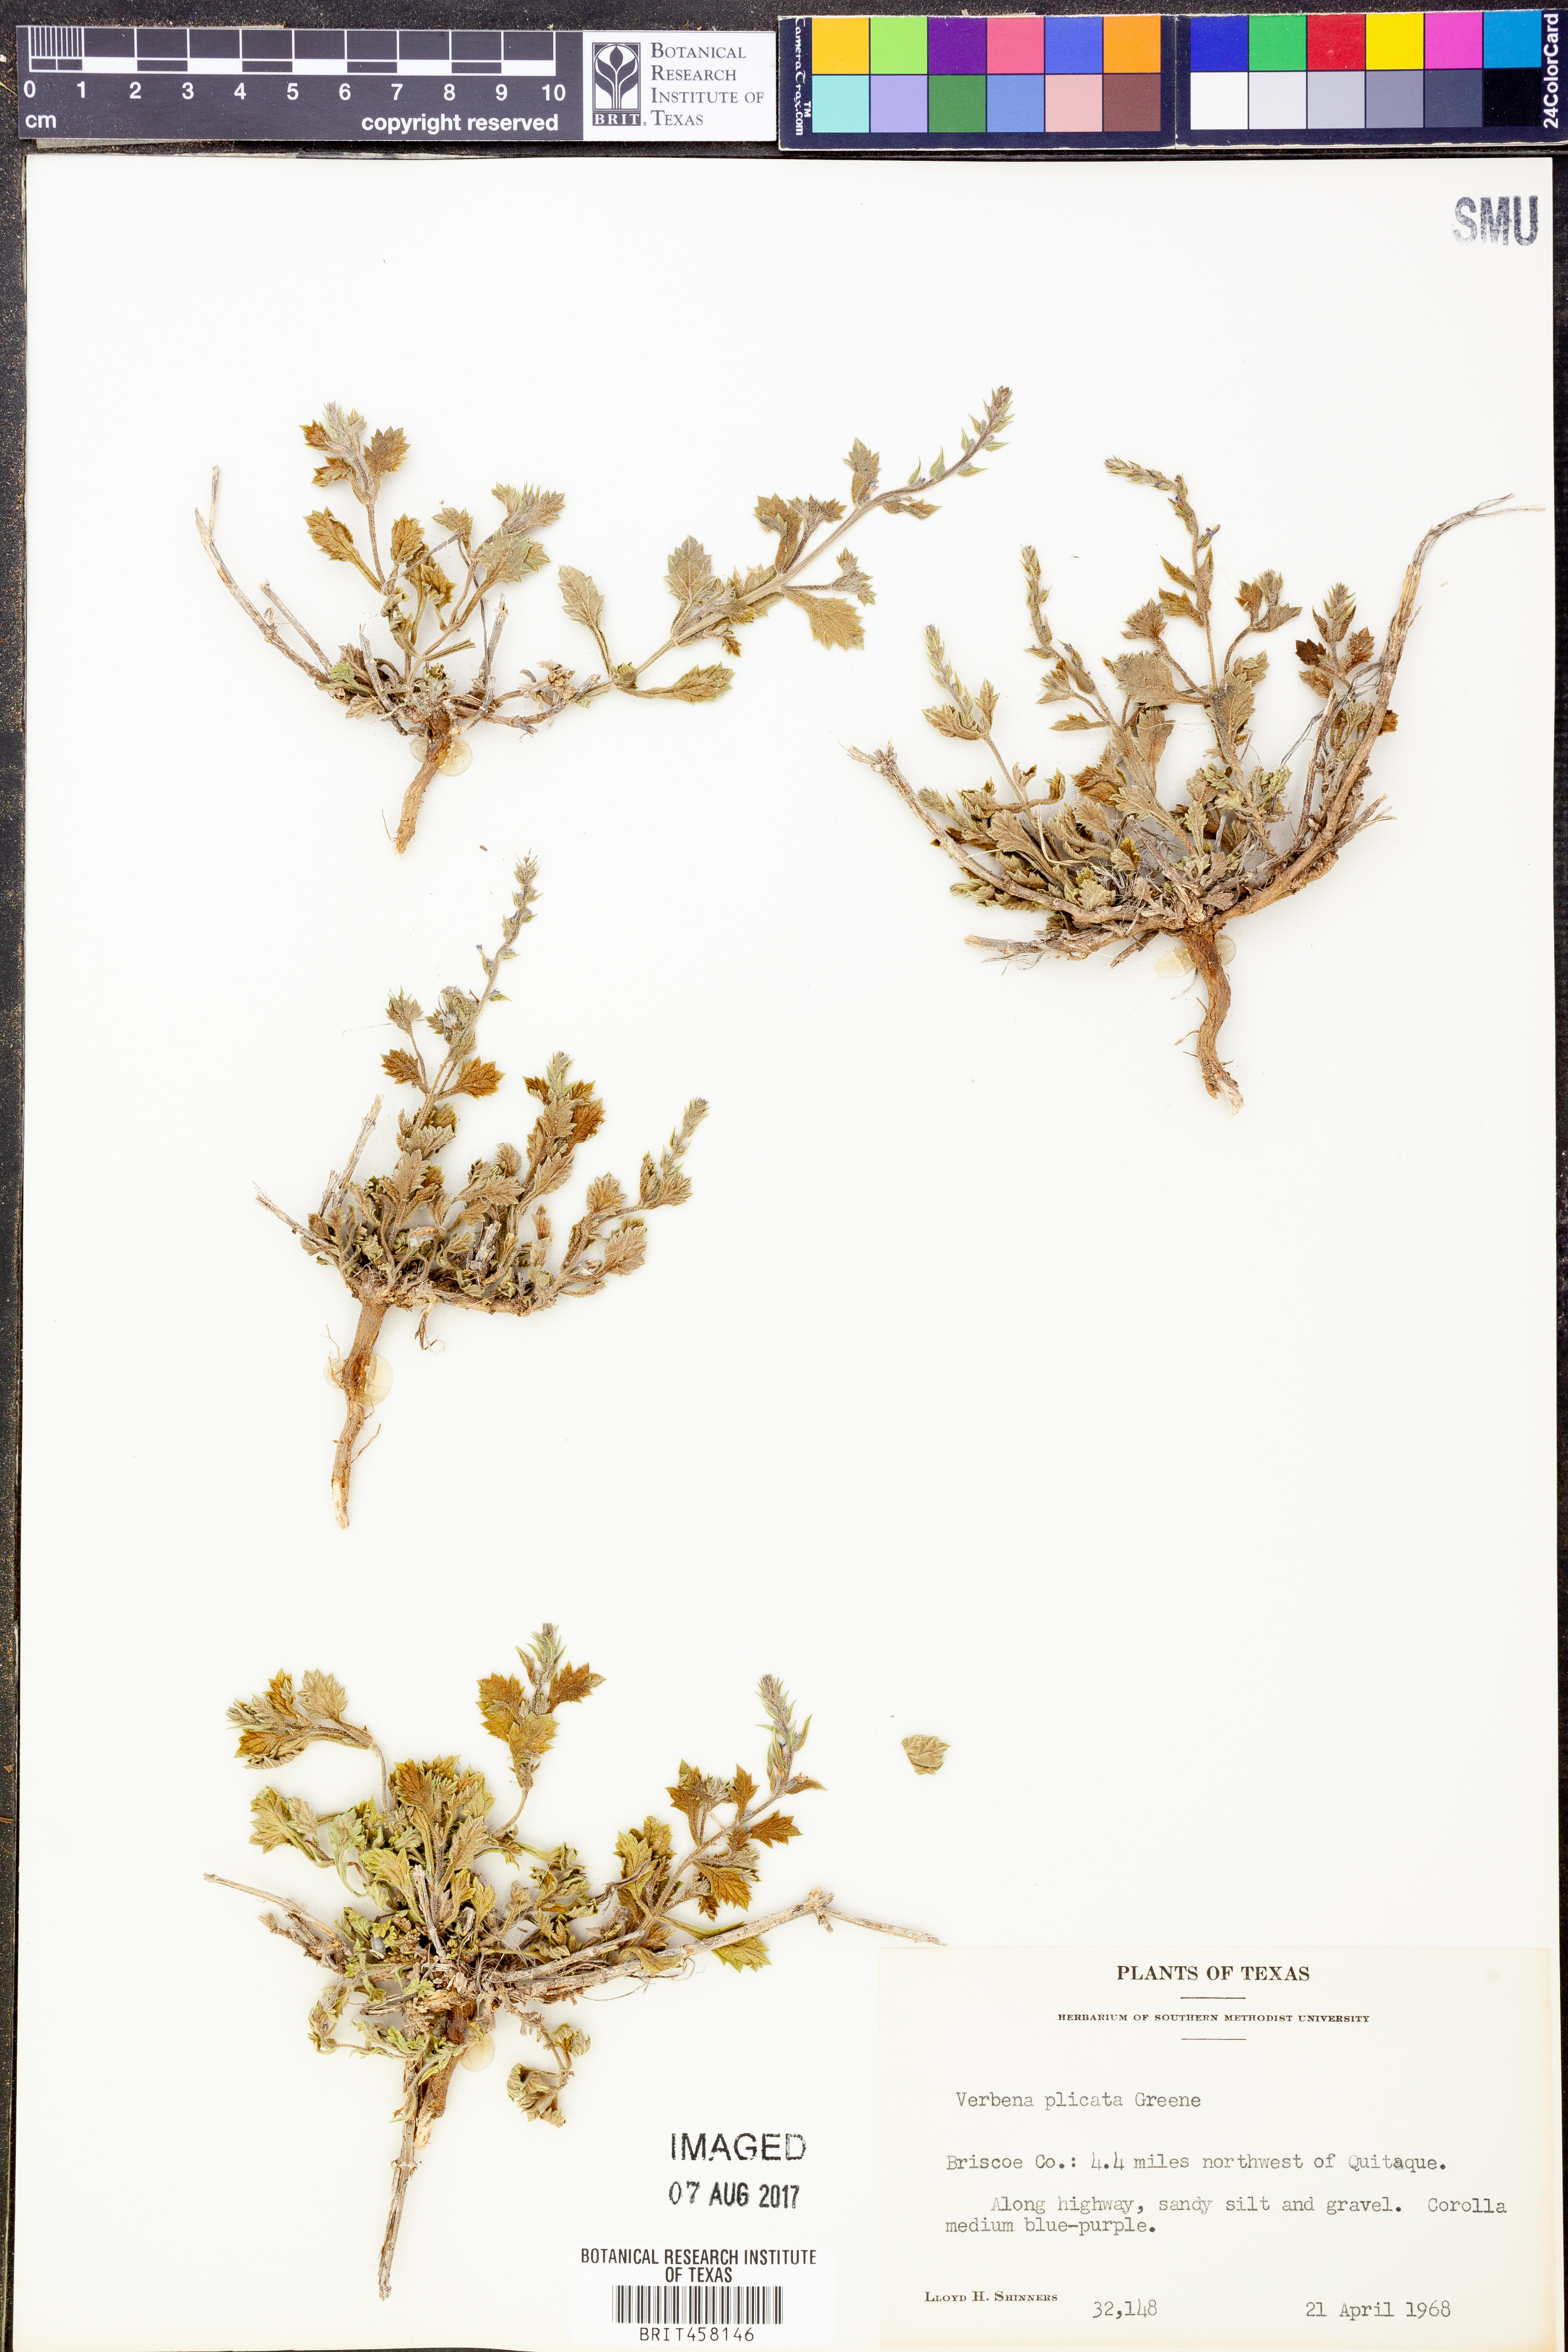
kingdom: Plantae
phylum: Tracheophyta
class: Magnoliopsida
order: Lamiales
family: Verbenaceae
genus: Verbena
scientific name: Verbena plicata
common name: Fan-leaf vervain
